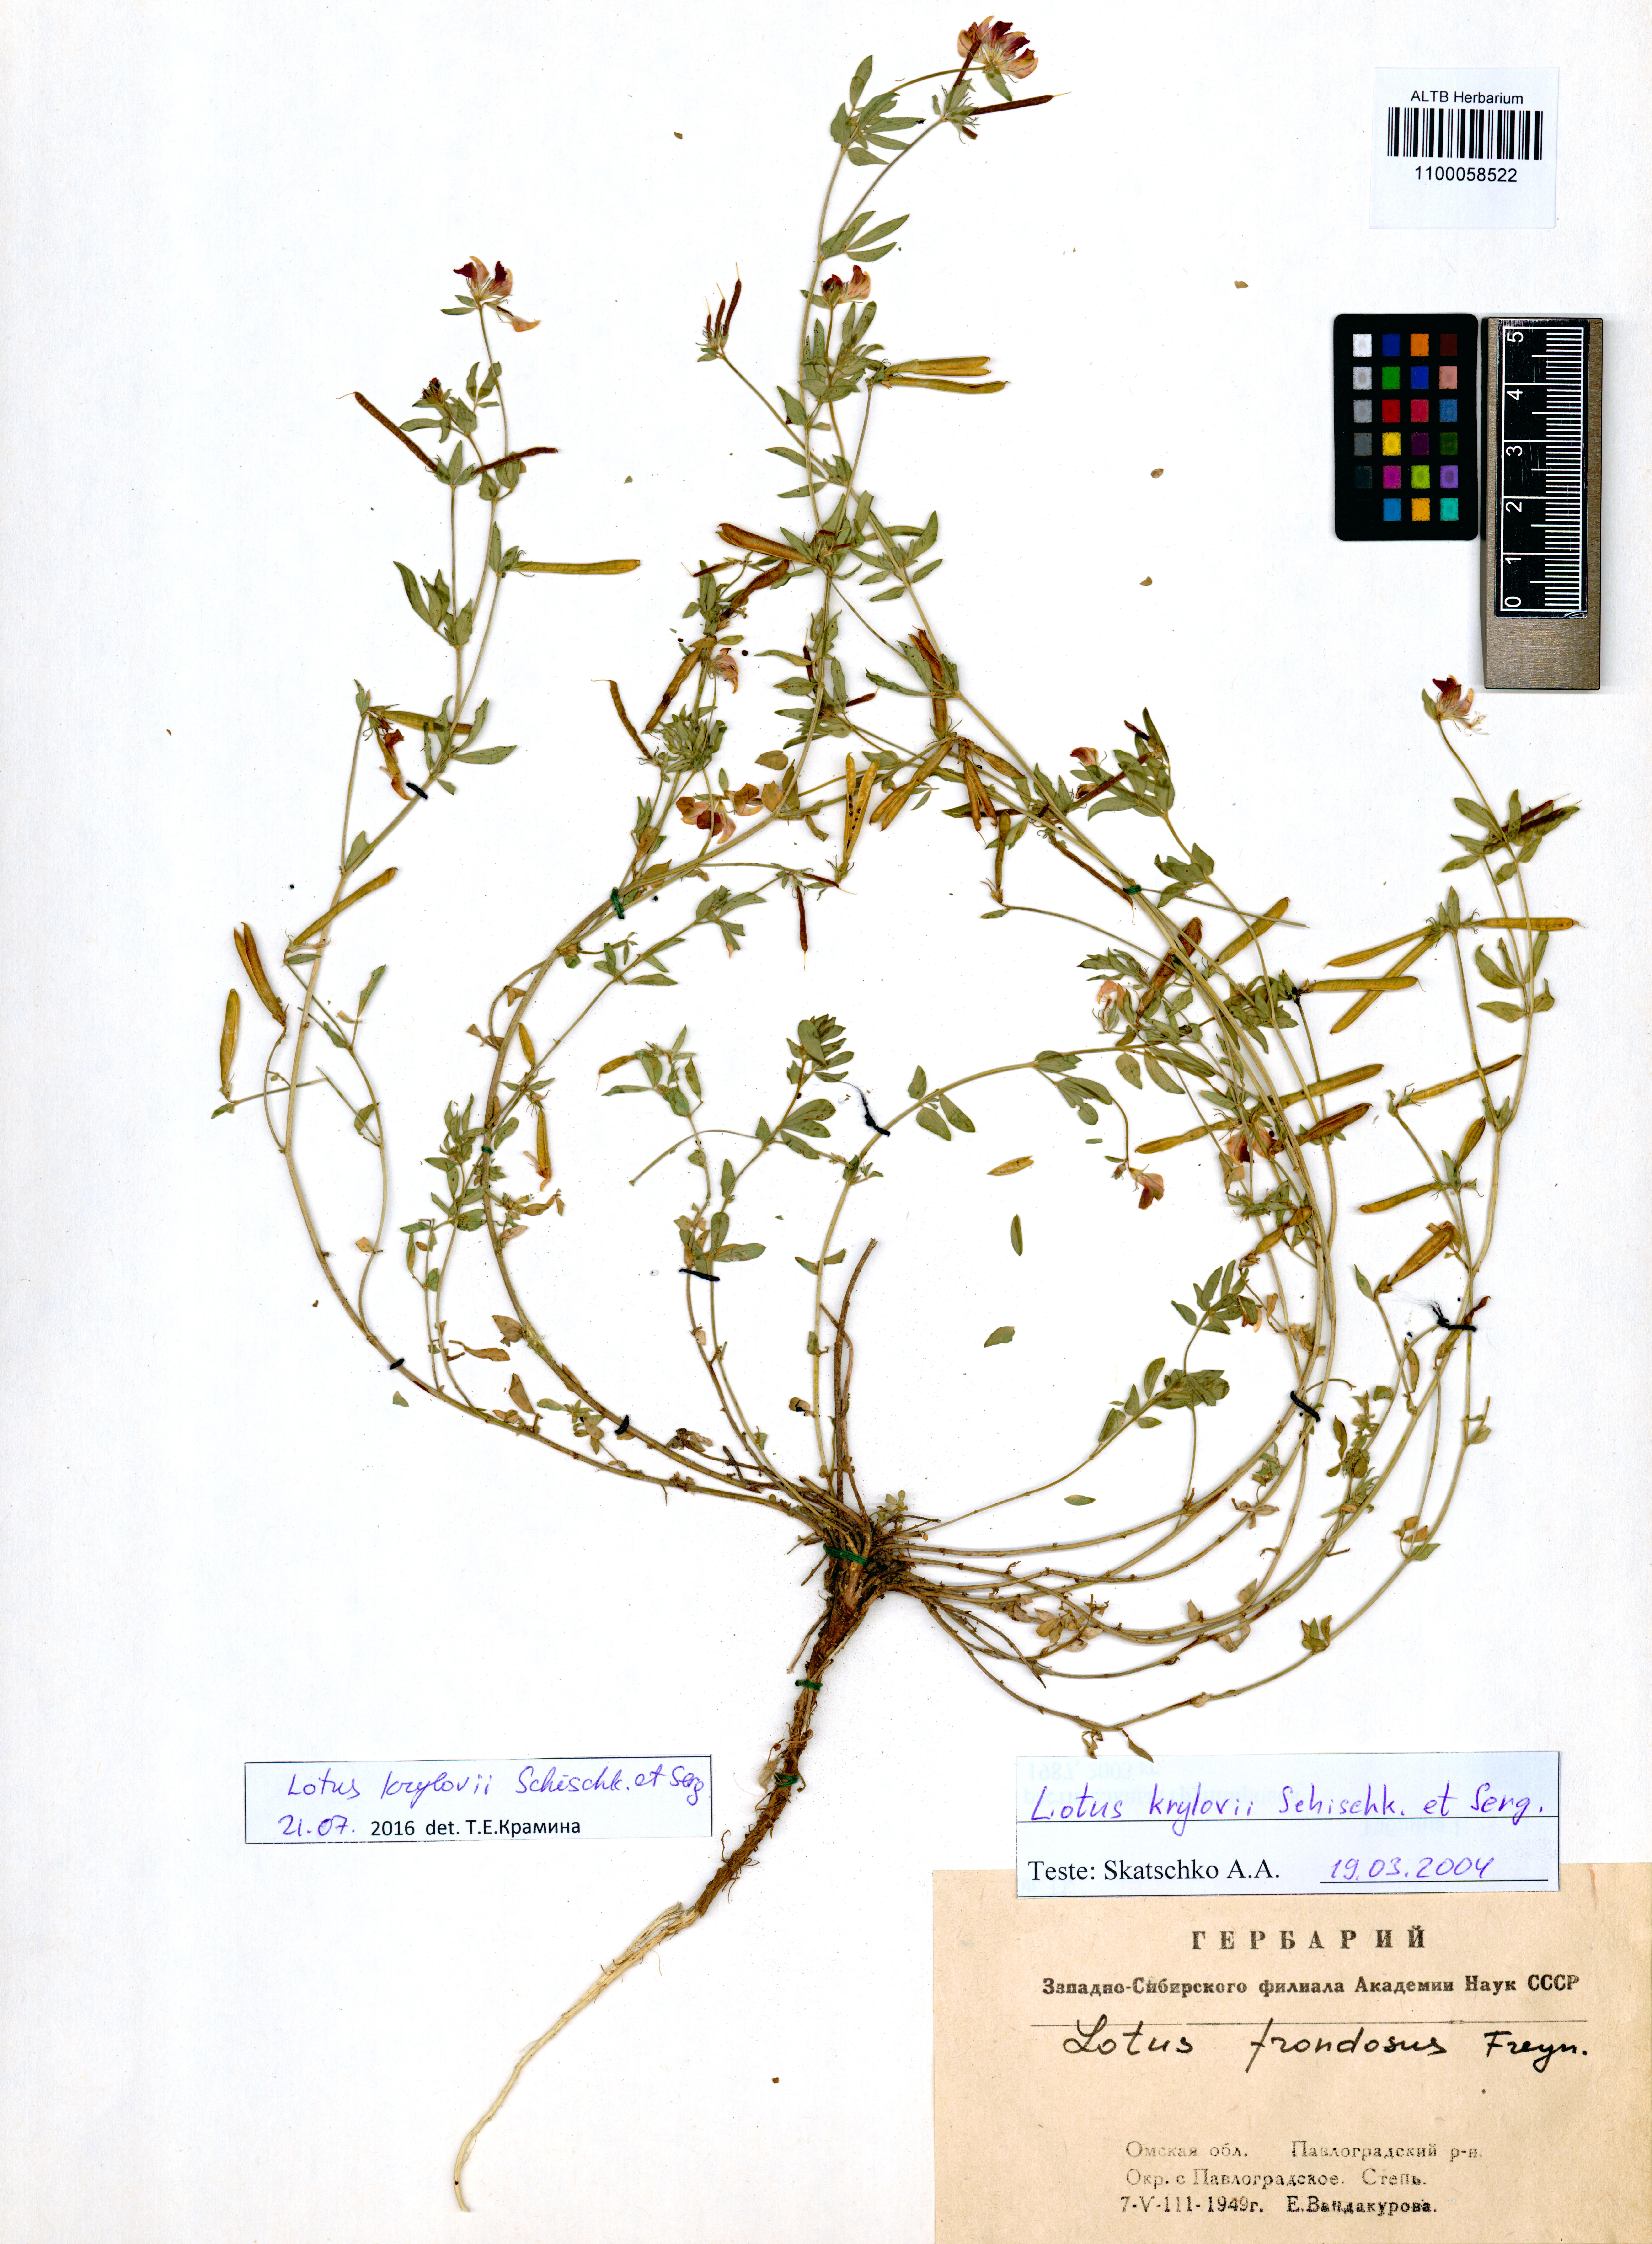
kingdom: Plantae
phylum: Tracheophyta
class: Magnoliopsida
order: Fabales
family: Fabaceae
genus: Lotus
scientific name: Lotus krylovii
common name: Krylov's bird's-foot trefoil
